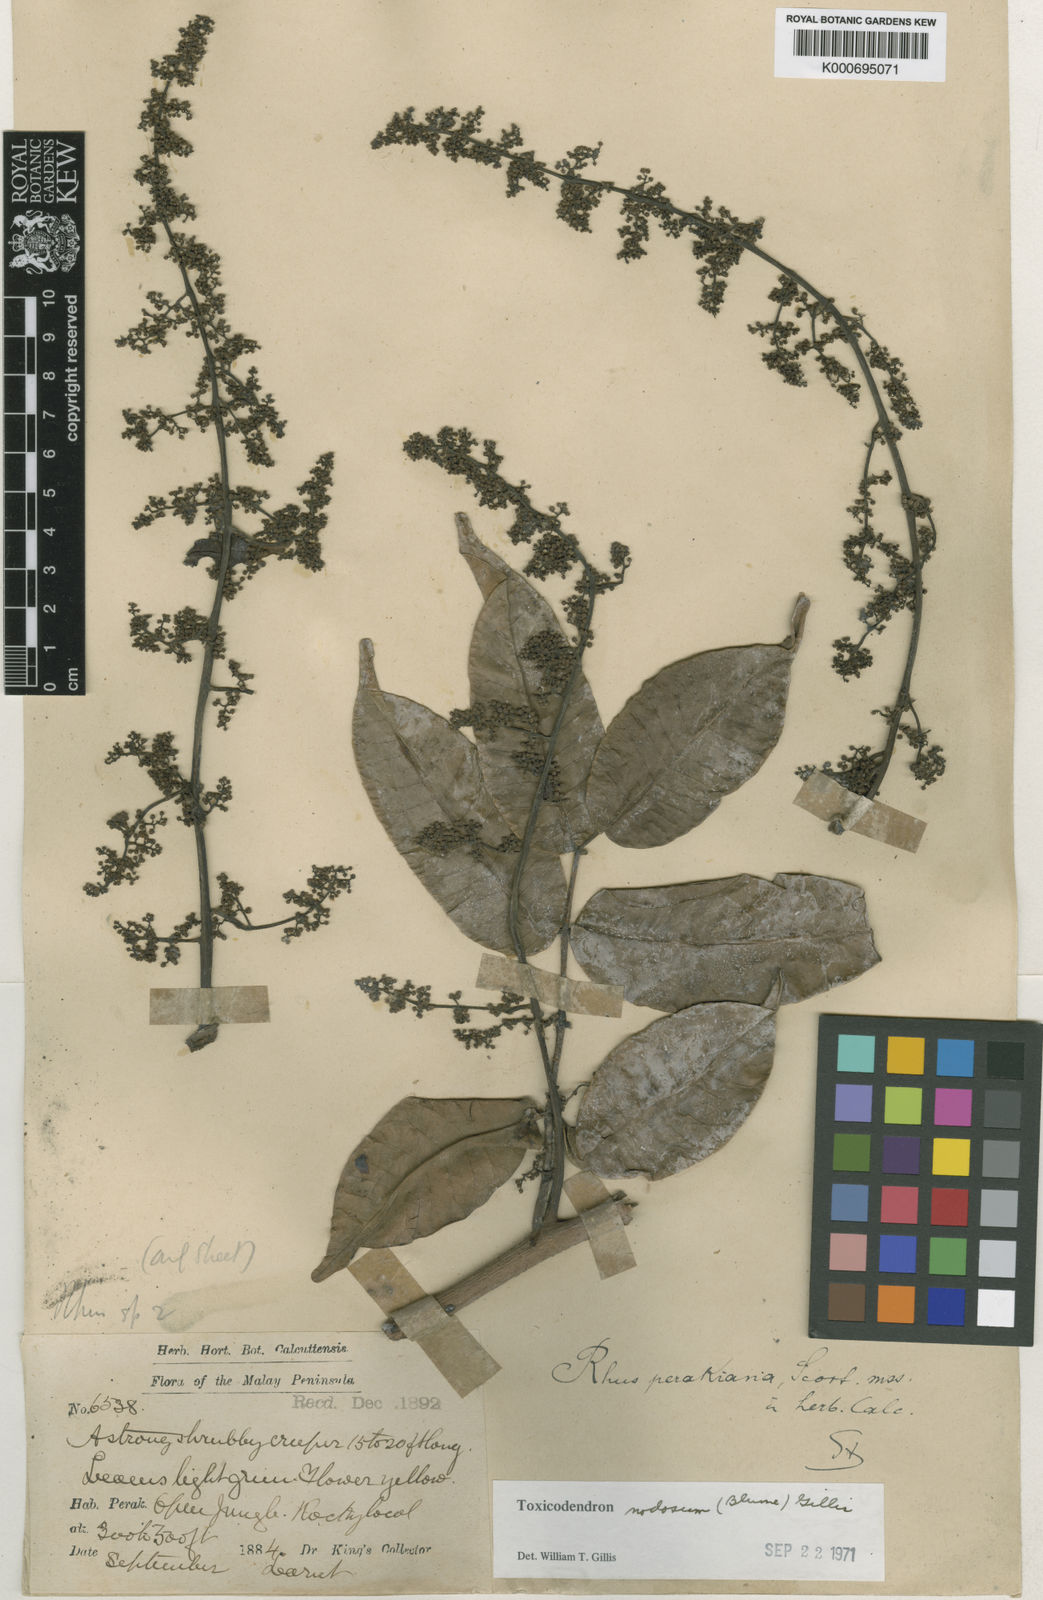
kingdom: Plantae
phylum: Tracheophyta
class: Magnoliopsida
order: Sapindales
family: Anacardiaceae
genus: Toxicodendron
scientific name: Toxicodendron nodosum
